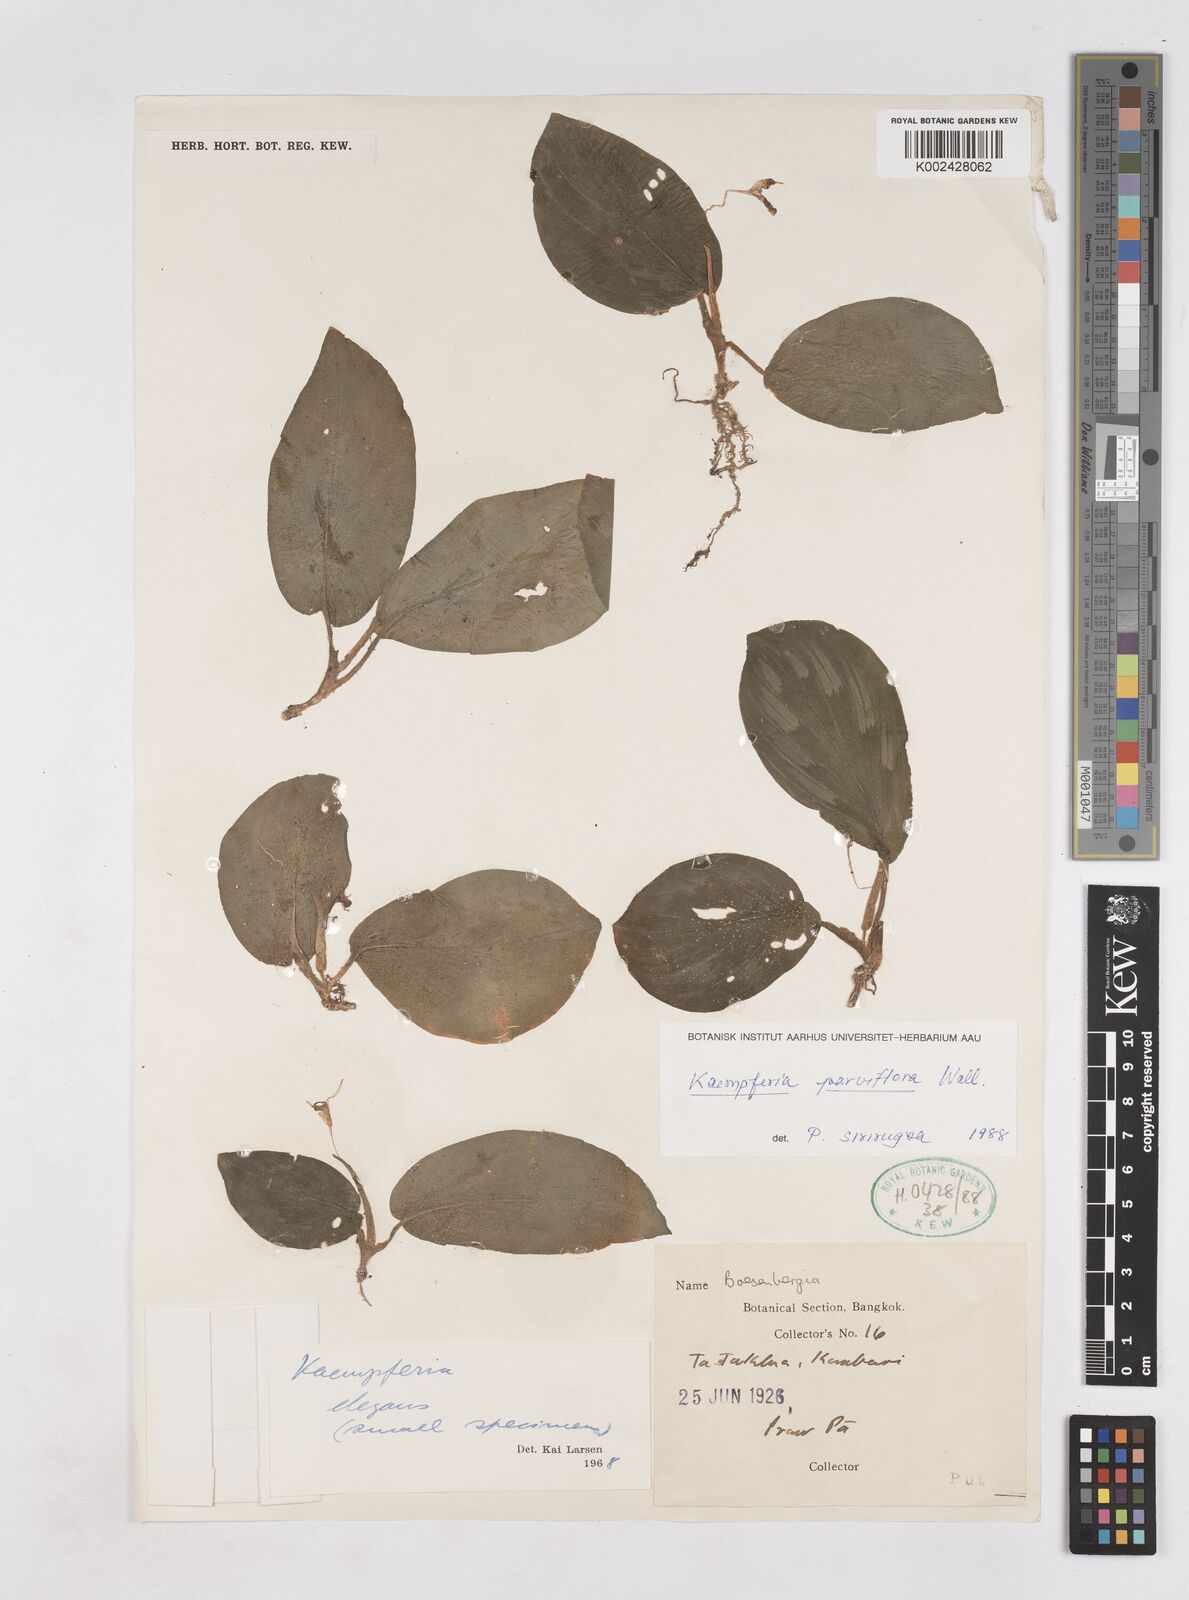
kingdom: Plantae
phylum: Tracheophyta
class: Liliopsida
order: Zingiberales
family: Zingiberaceae
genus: Kaempferia
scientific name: Kaempferia parviflora
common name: Black galingale
